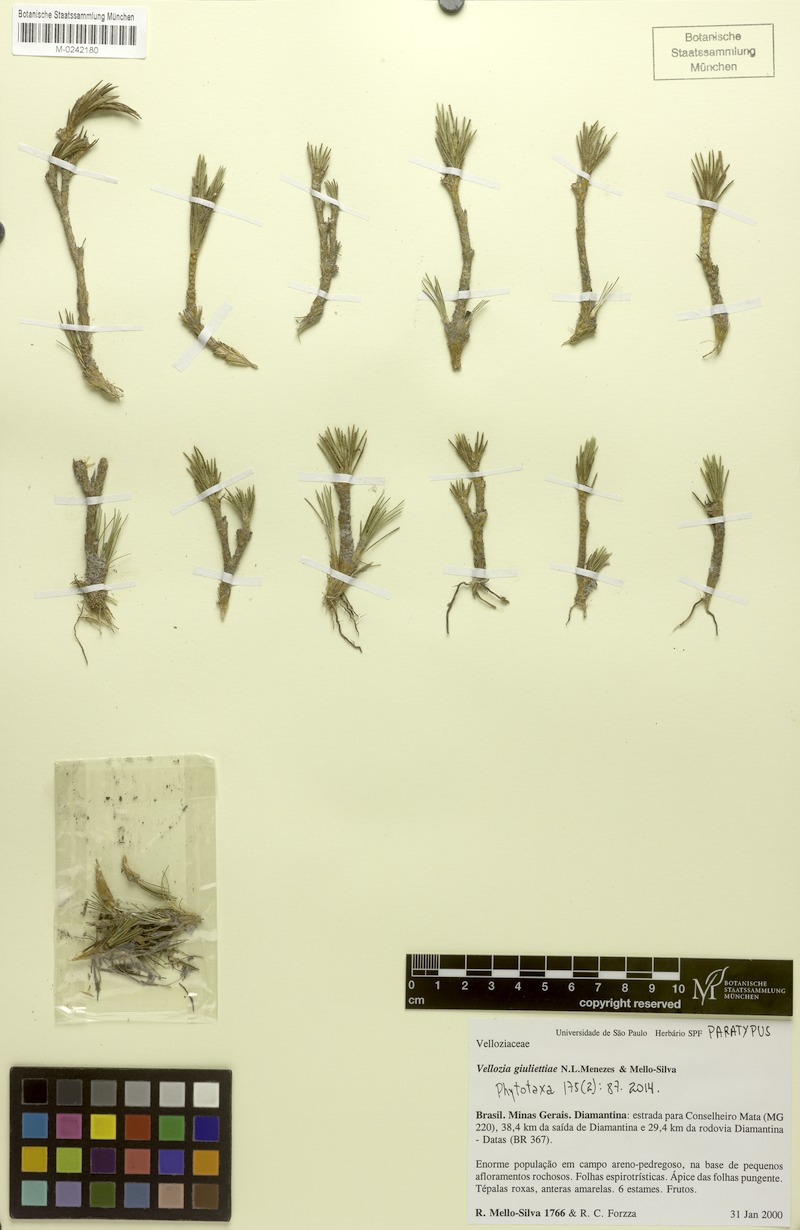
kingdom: Plantae
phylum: Tracheophyta
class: Liliopsida
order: Pandanales
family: Velloziaceae
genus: Vellozia
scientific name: Vellozia giuliettiae
